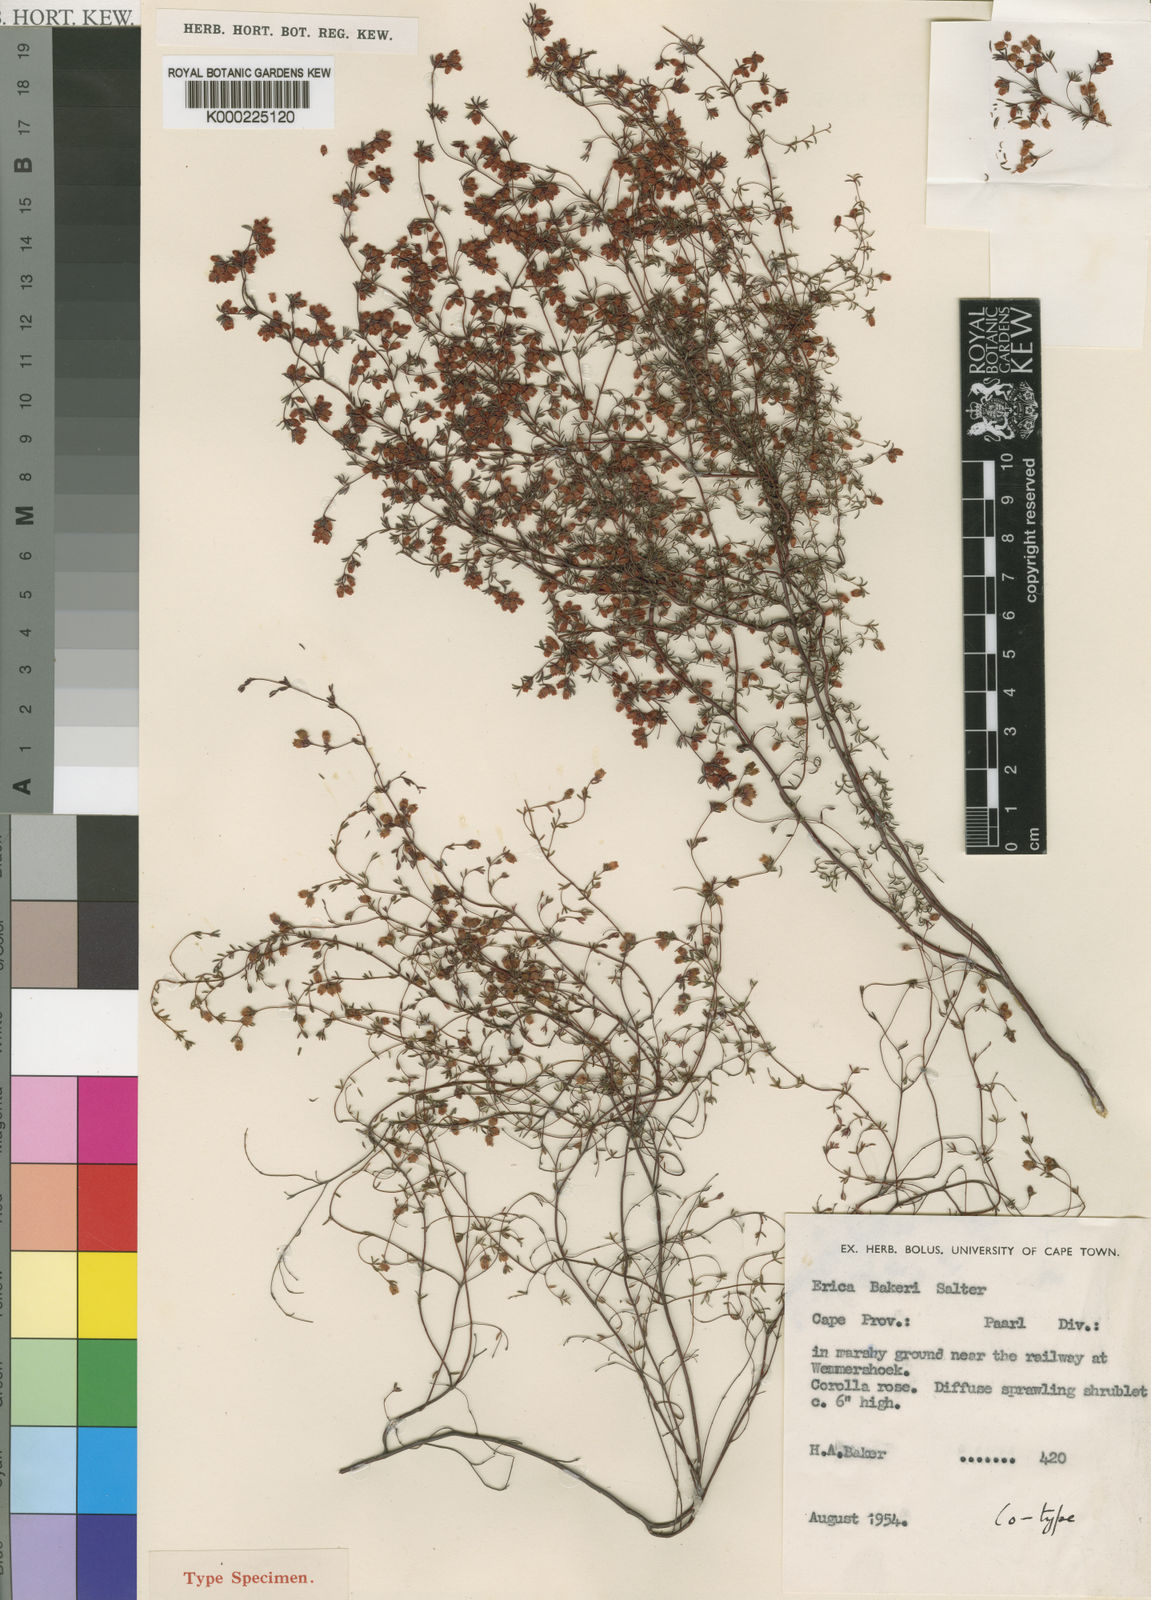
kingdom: Plantae
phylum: Tracheophyta
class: Magnoliopsida
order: Ericales
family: Ericaceae
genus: Erica
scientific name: Erica bakeri
